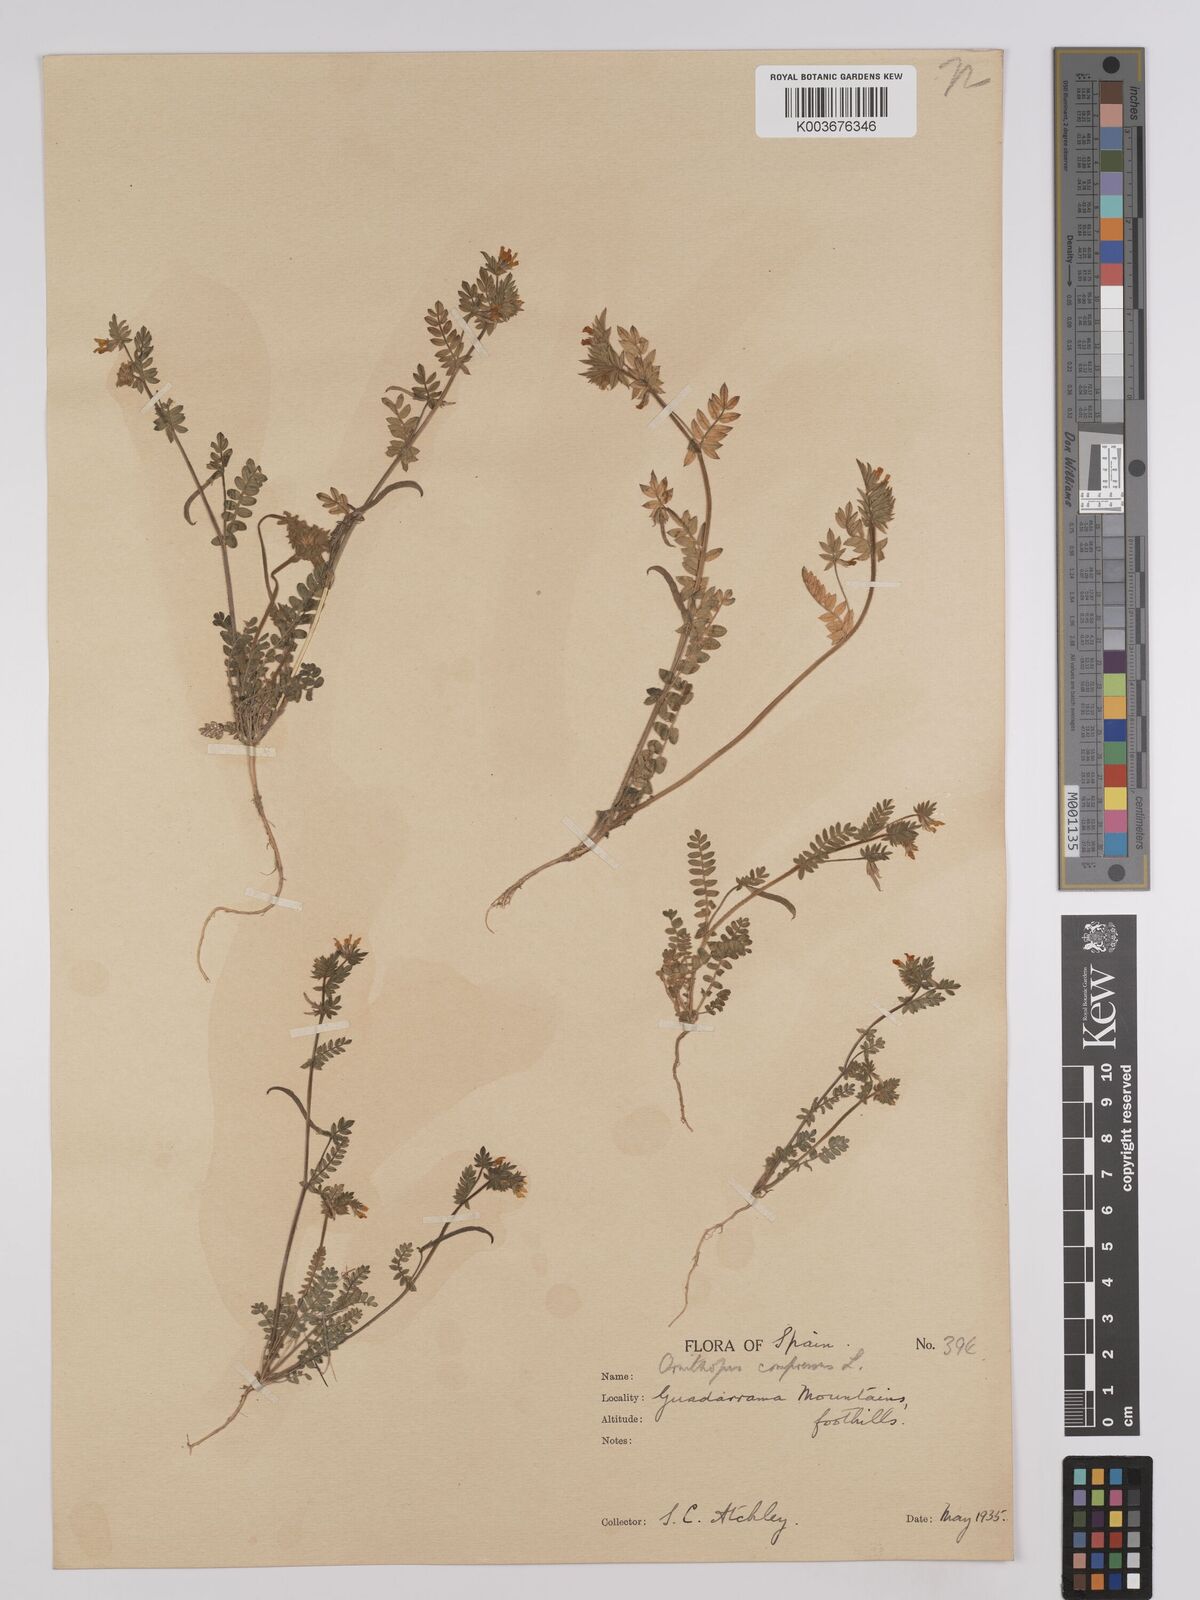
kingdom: Plantae
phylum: Tracheophyta
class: Magnoliopsida
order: Fabales
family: Fabaceae
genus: Ornithopus
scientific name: Ornithopus compressus
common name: Yellow serradella
